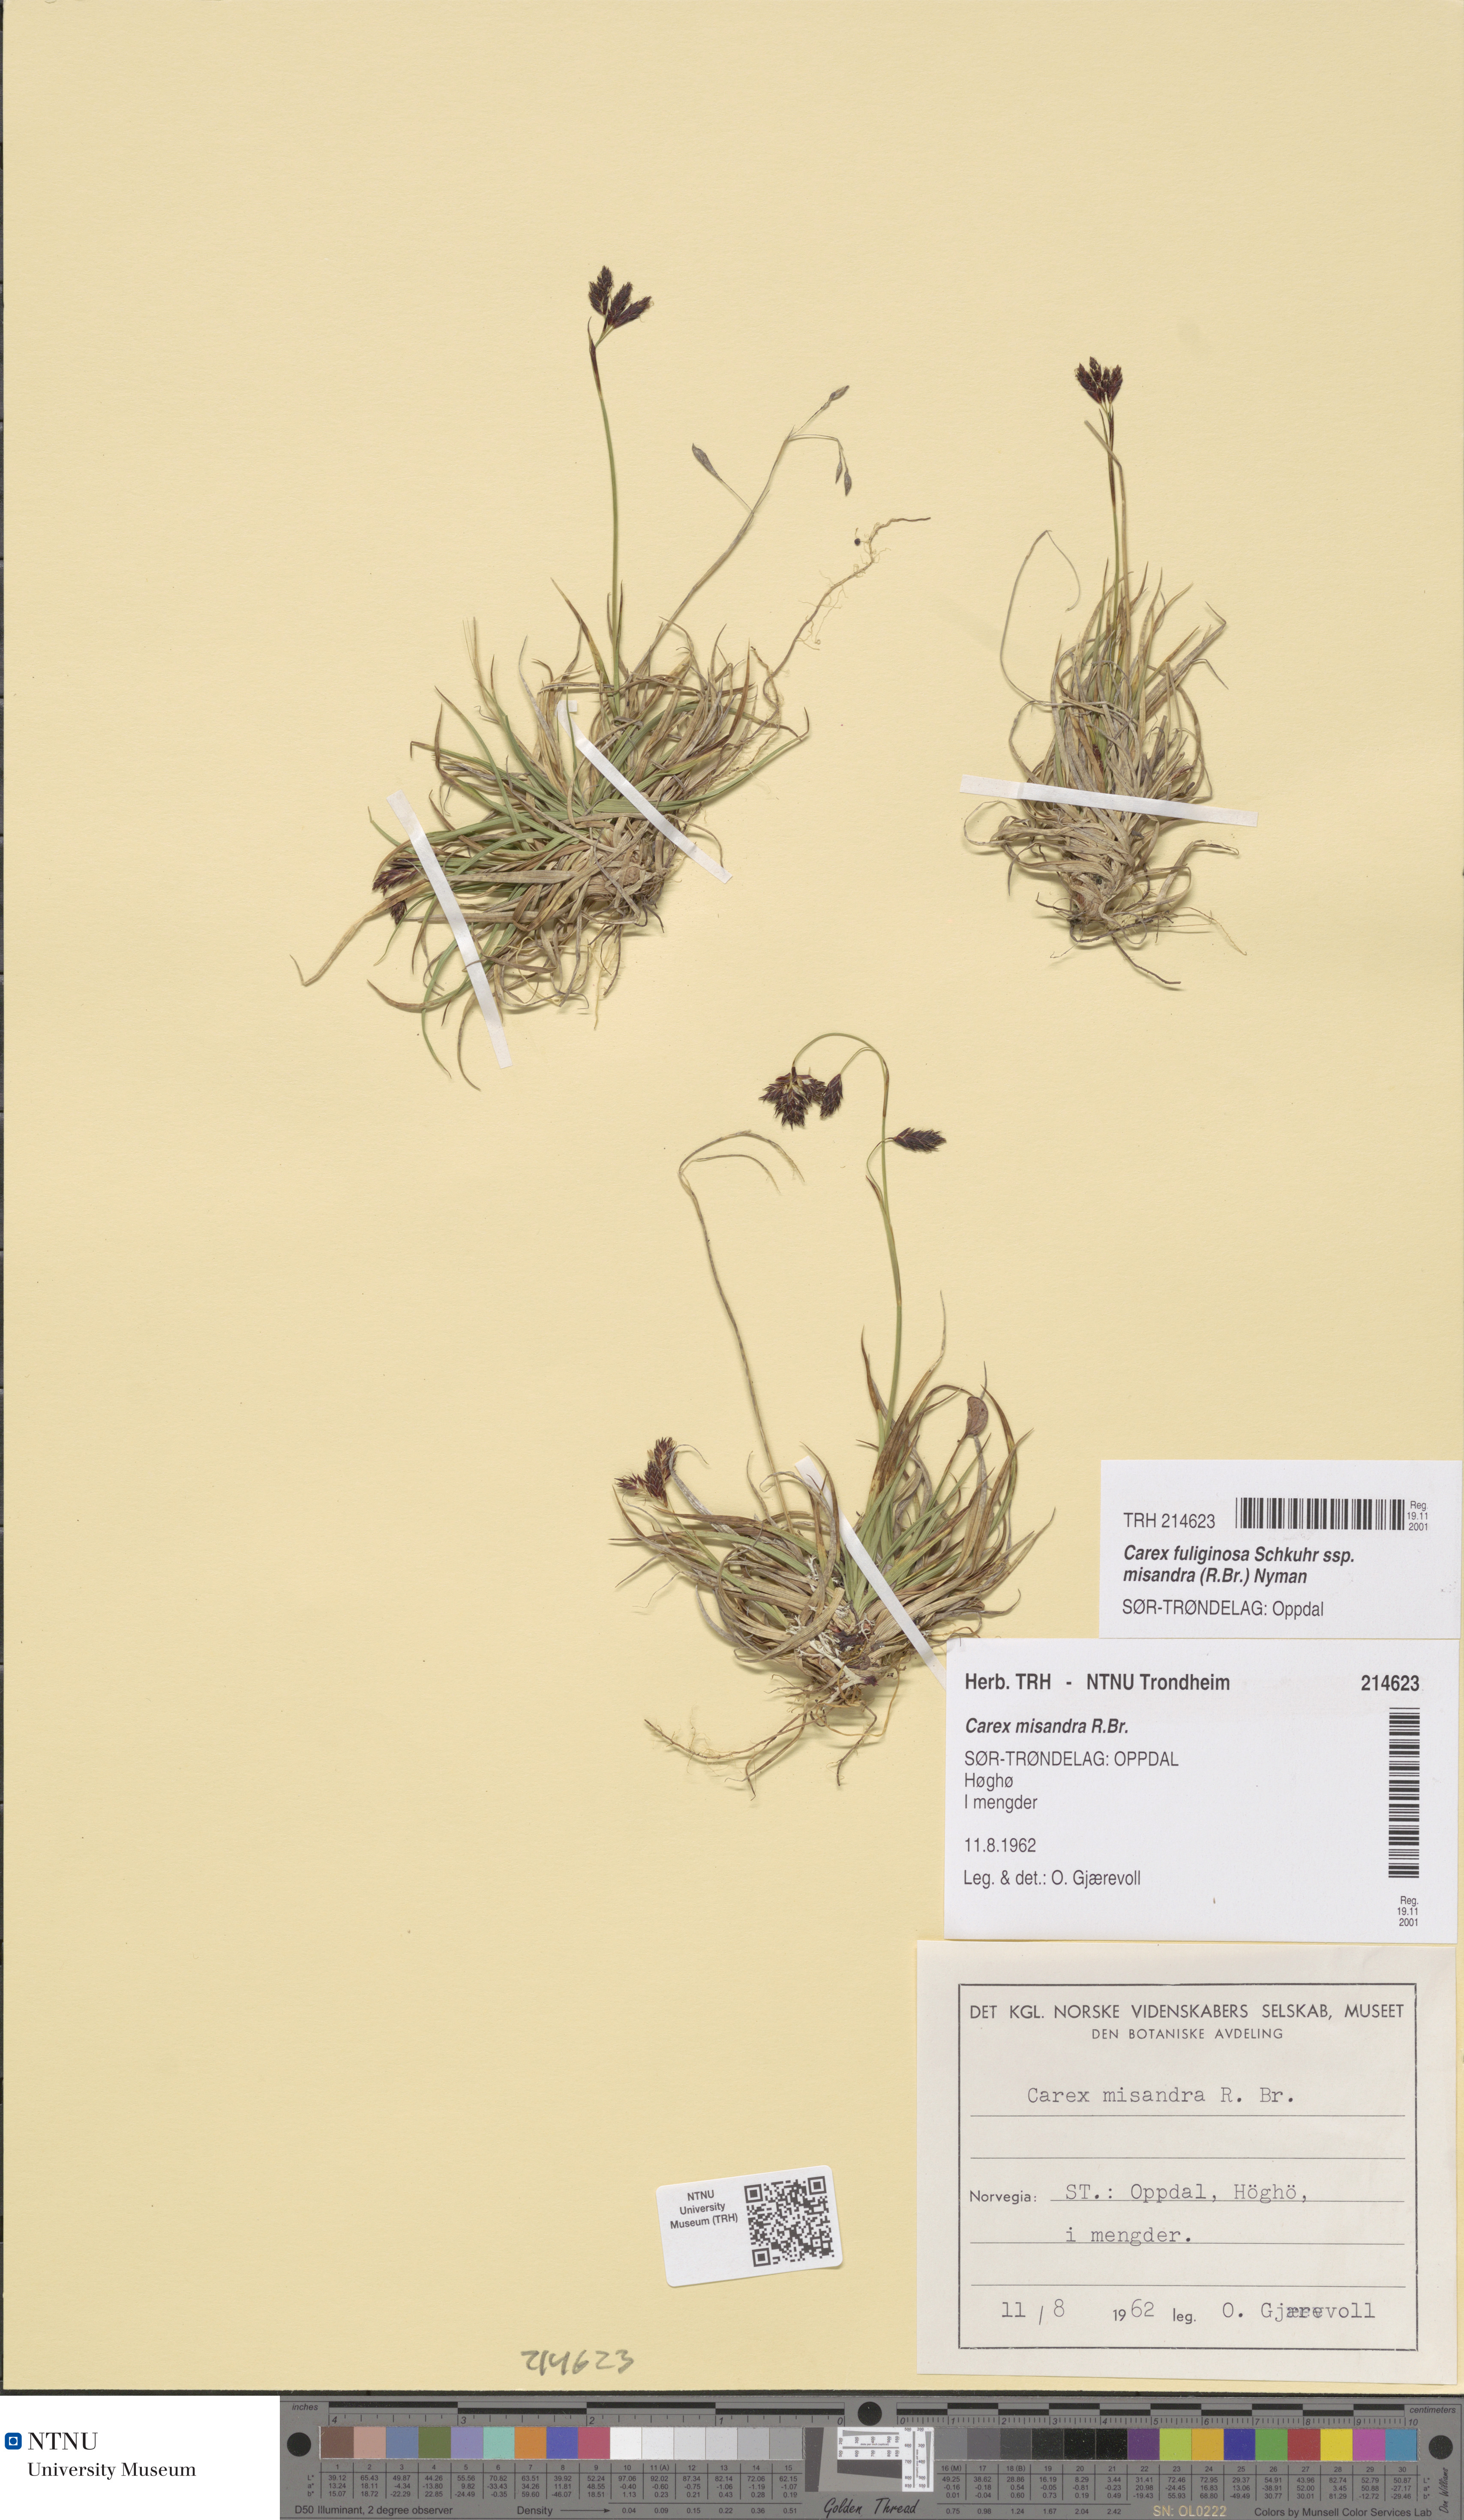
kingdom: Plantae
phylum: Tracheophyta
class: Liliopsida
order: Poales
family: Cyperaceae
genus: Carex
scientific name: Carex fuliginosa
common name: Few-flowered sedge
